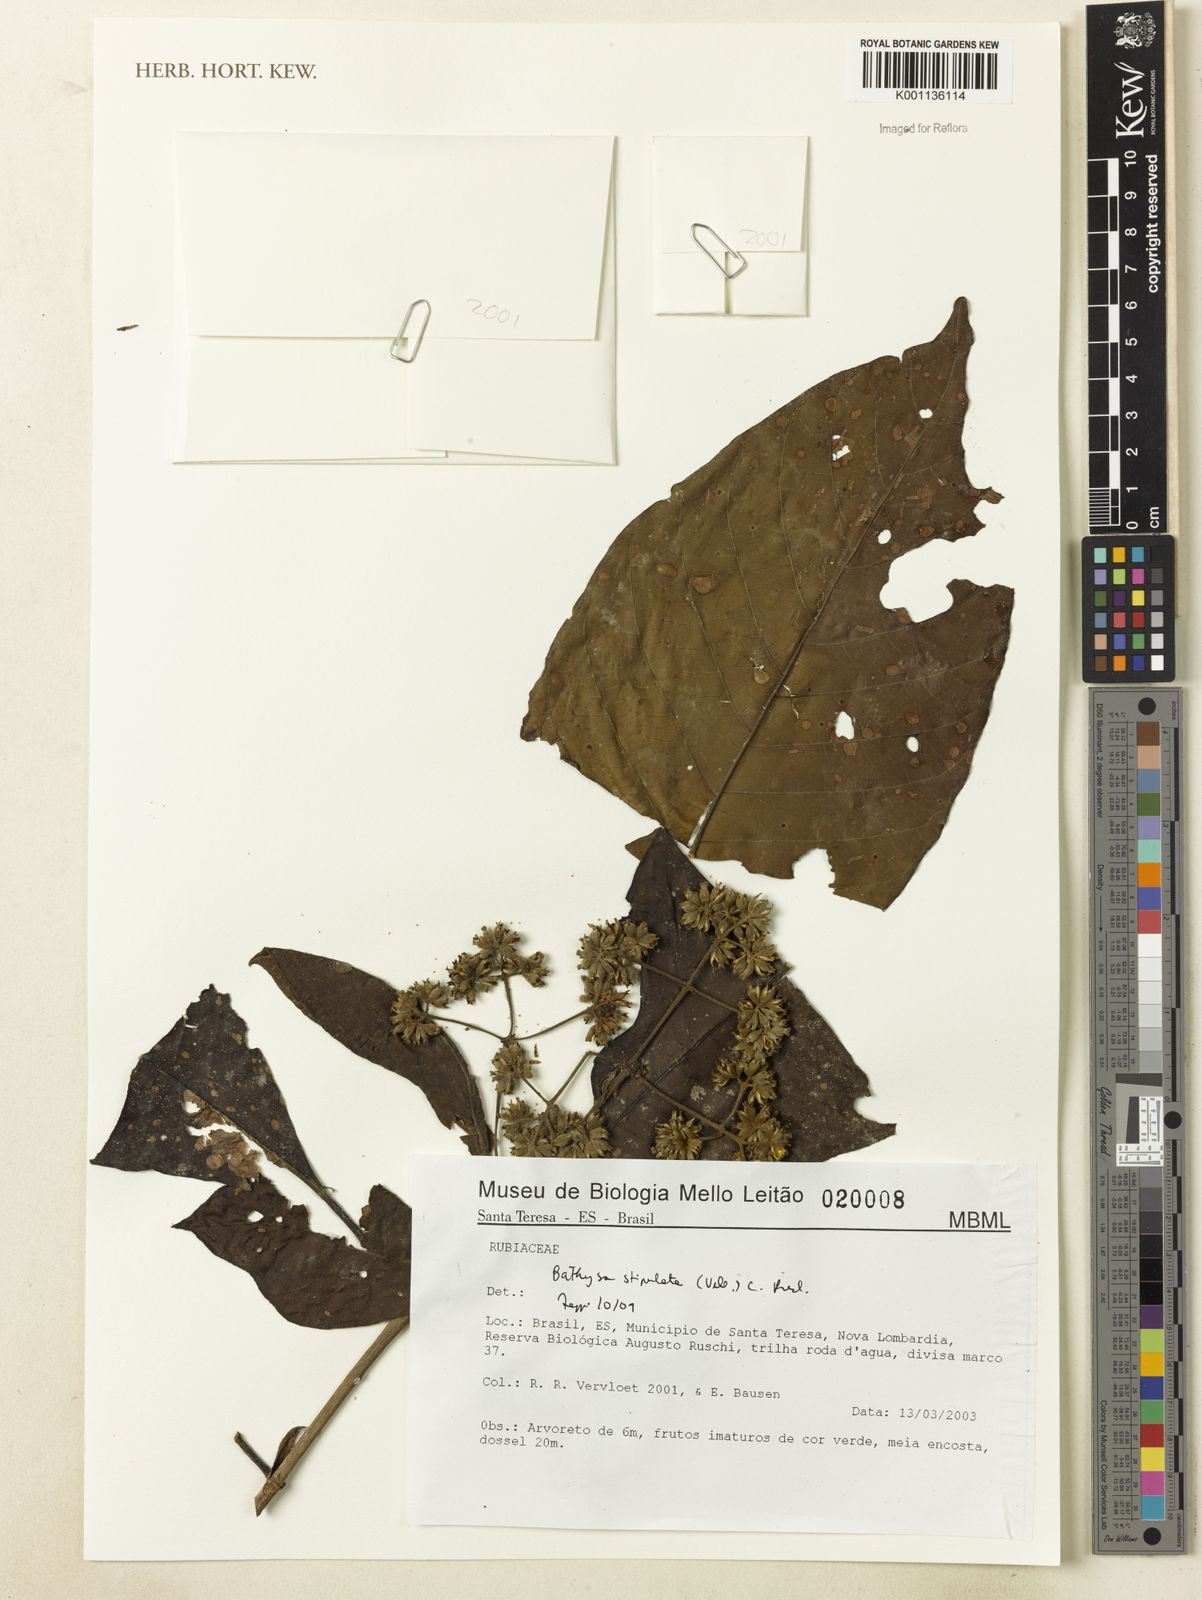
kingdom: Plantae
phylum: Tracheophyta
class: Magnoliopsida
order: Gentianales
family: Rubiaceae
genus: Bathysa
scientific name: Bathysa stipulata
